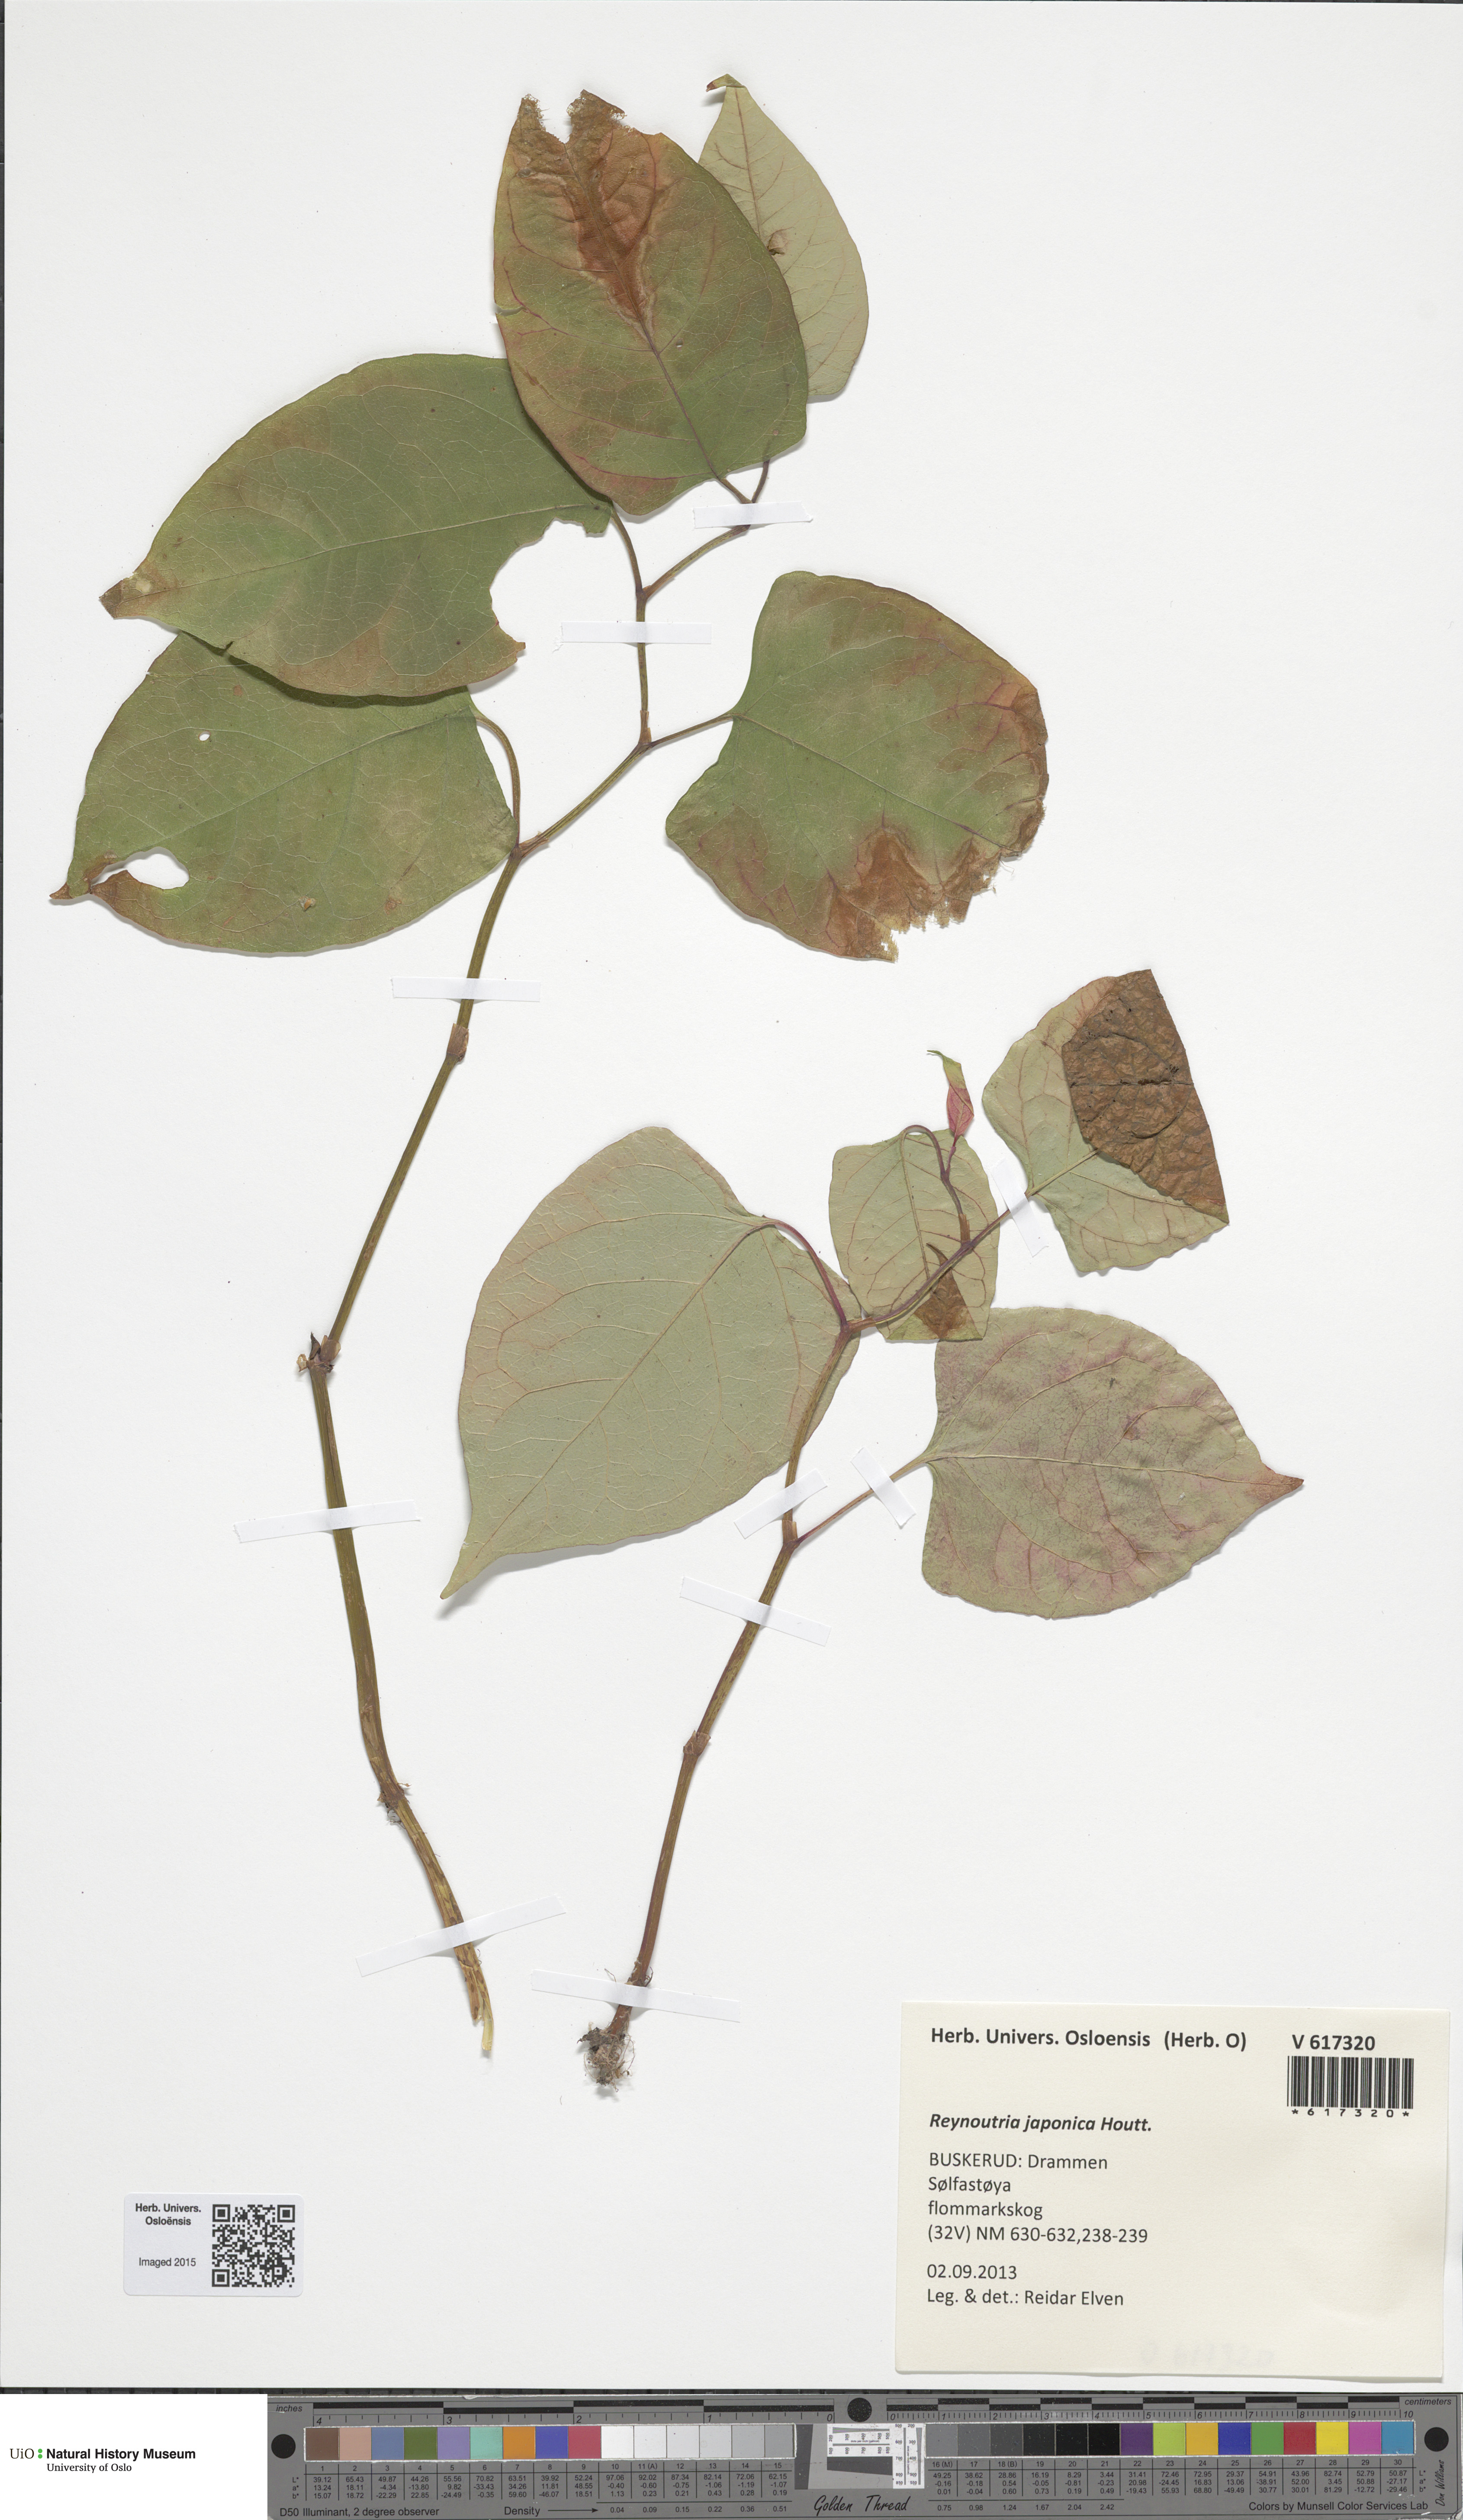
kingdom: Plantae
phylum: Tracheophyta
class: Magnoliopsida
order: Caryophyllales
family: Polygonaceae
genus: Reynoutria
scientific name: Reynoutria japonica
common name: Japanese knotweed
